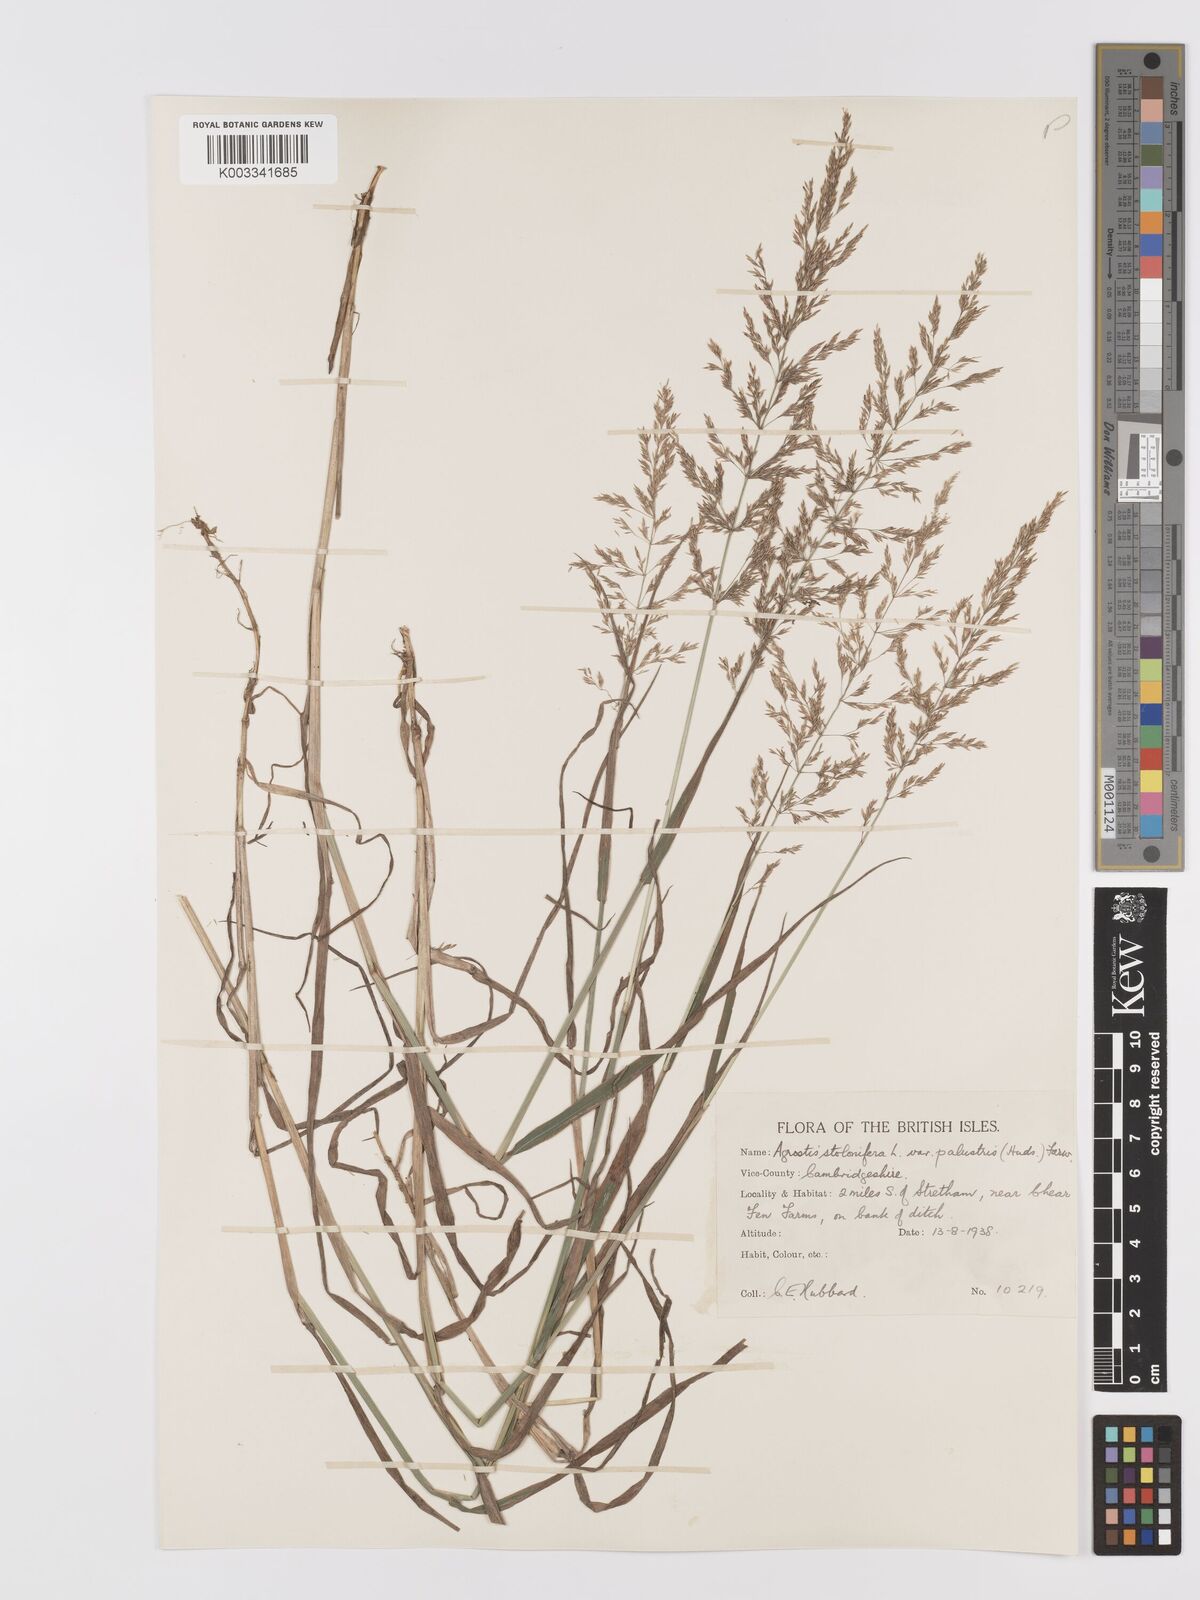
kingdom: Plantae
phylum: Tracheophyta
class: Liliopsida
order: Poales
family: Poaceae
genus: Agrostis
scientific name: Agrostis stolonifera
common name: Creeping bentgrass
